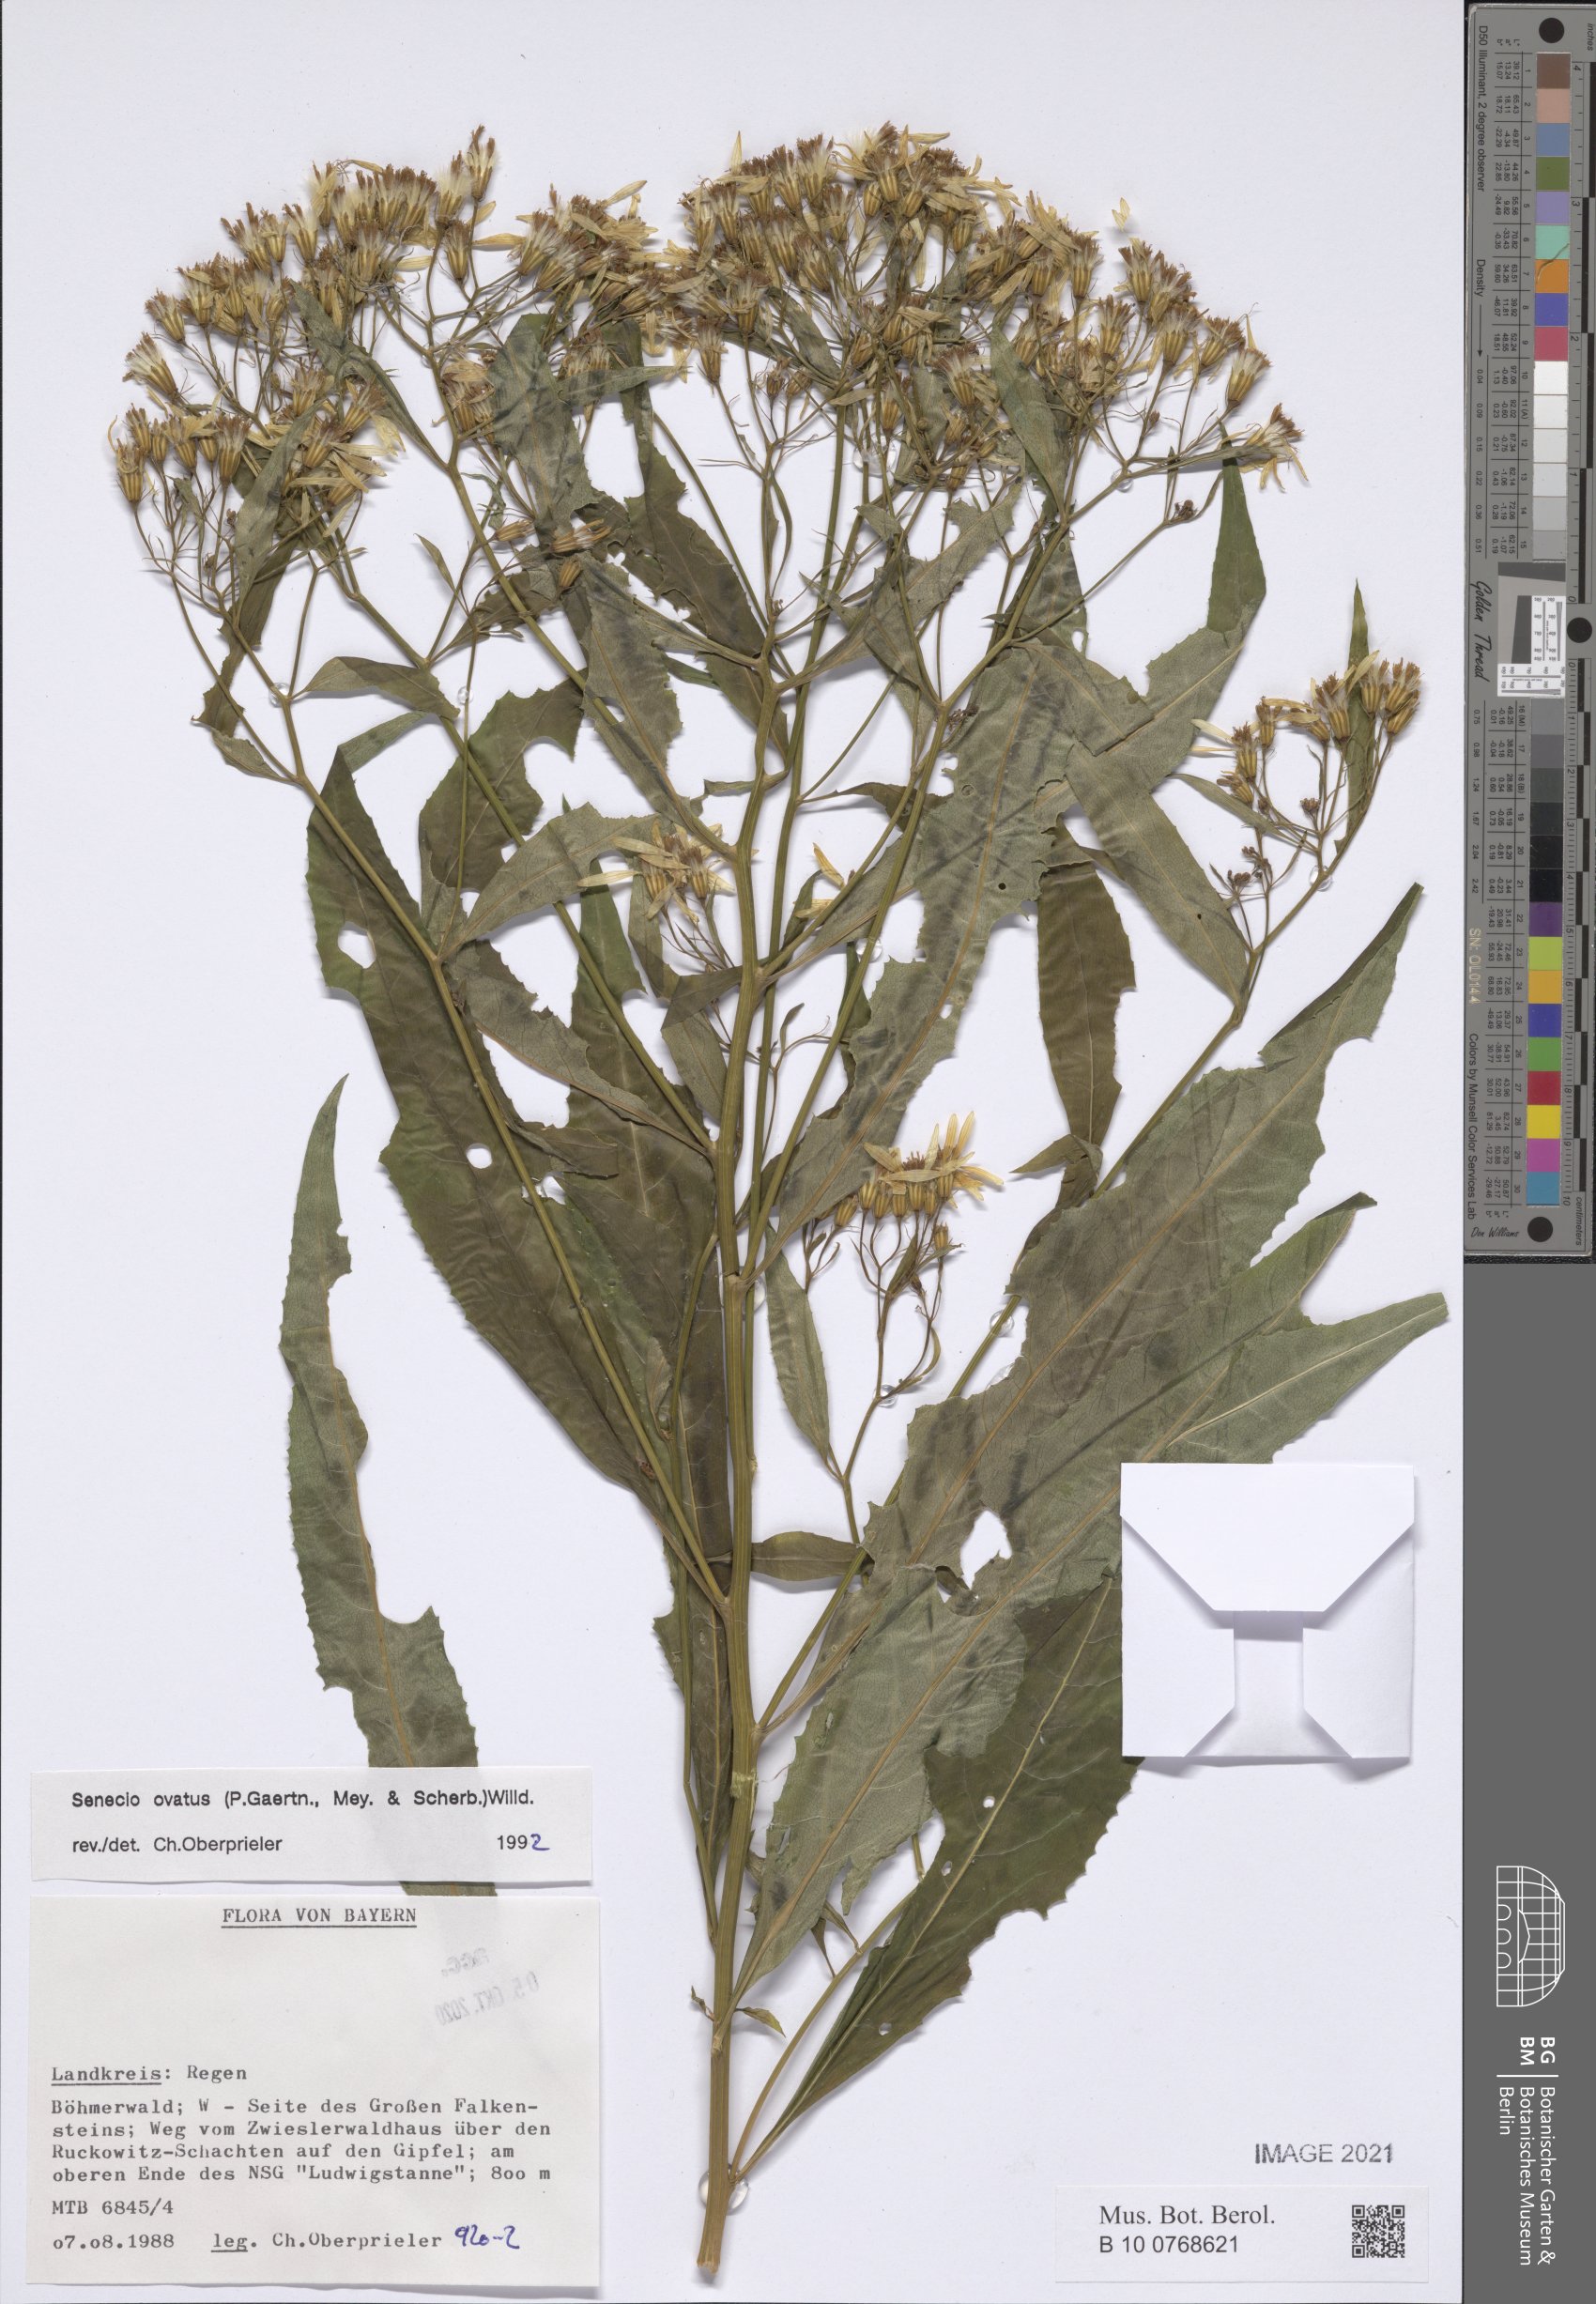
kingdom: Plantae
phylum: Tracheophyta
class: Magnoliopsida
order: Asterales
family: Asteraceae
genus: Senecio
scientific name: Senecio ovatus
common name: Wood ragwort
